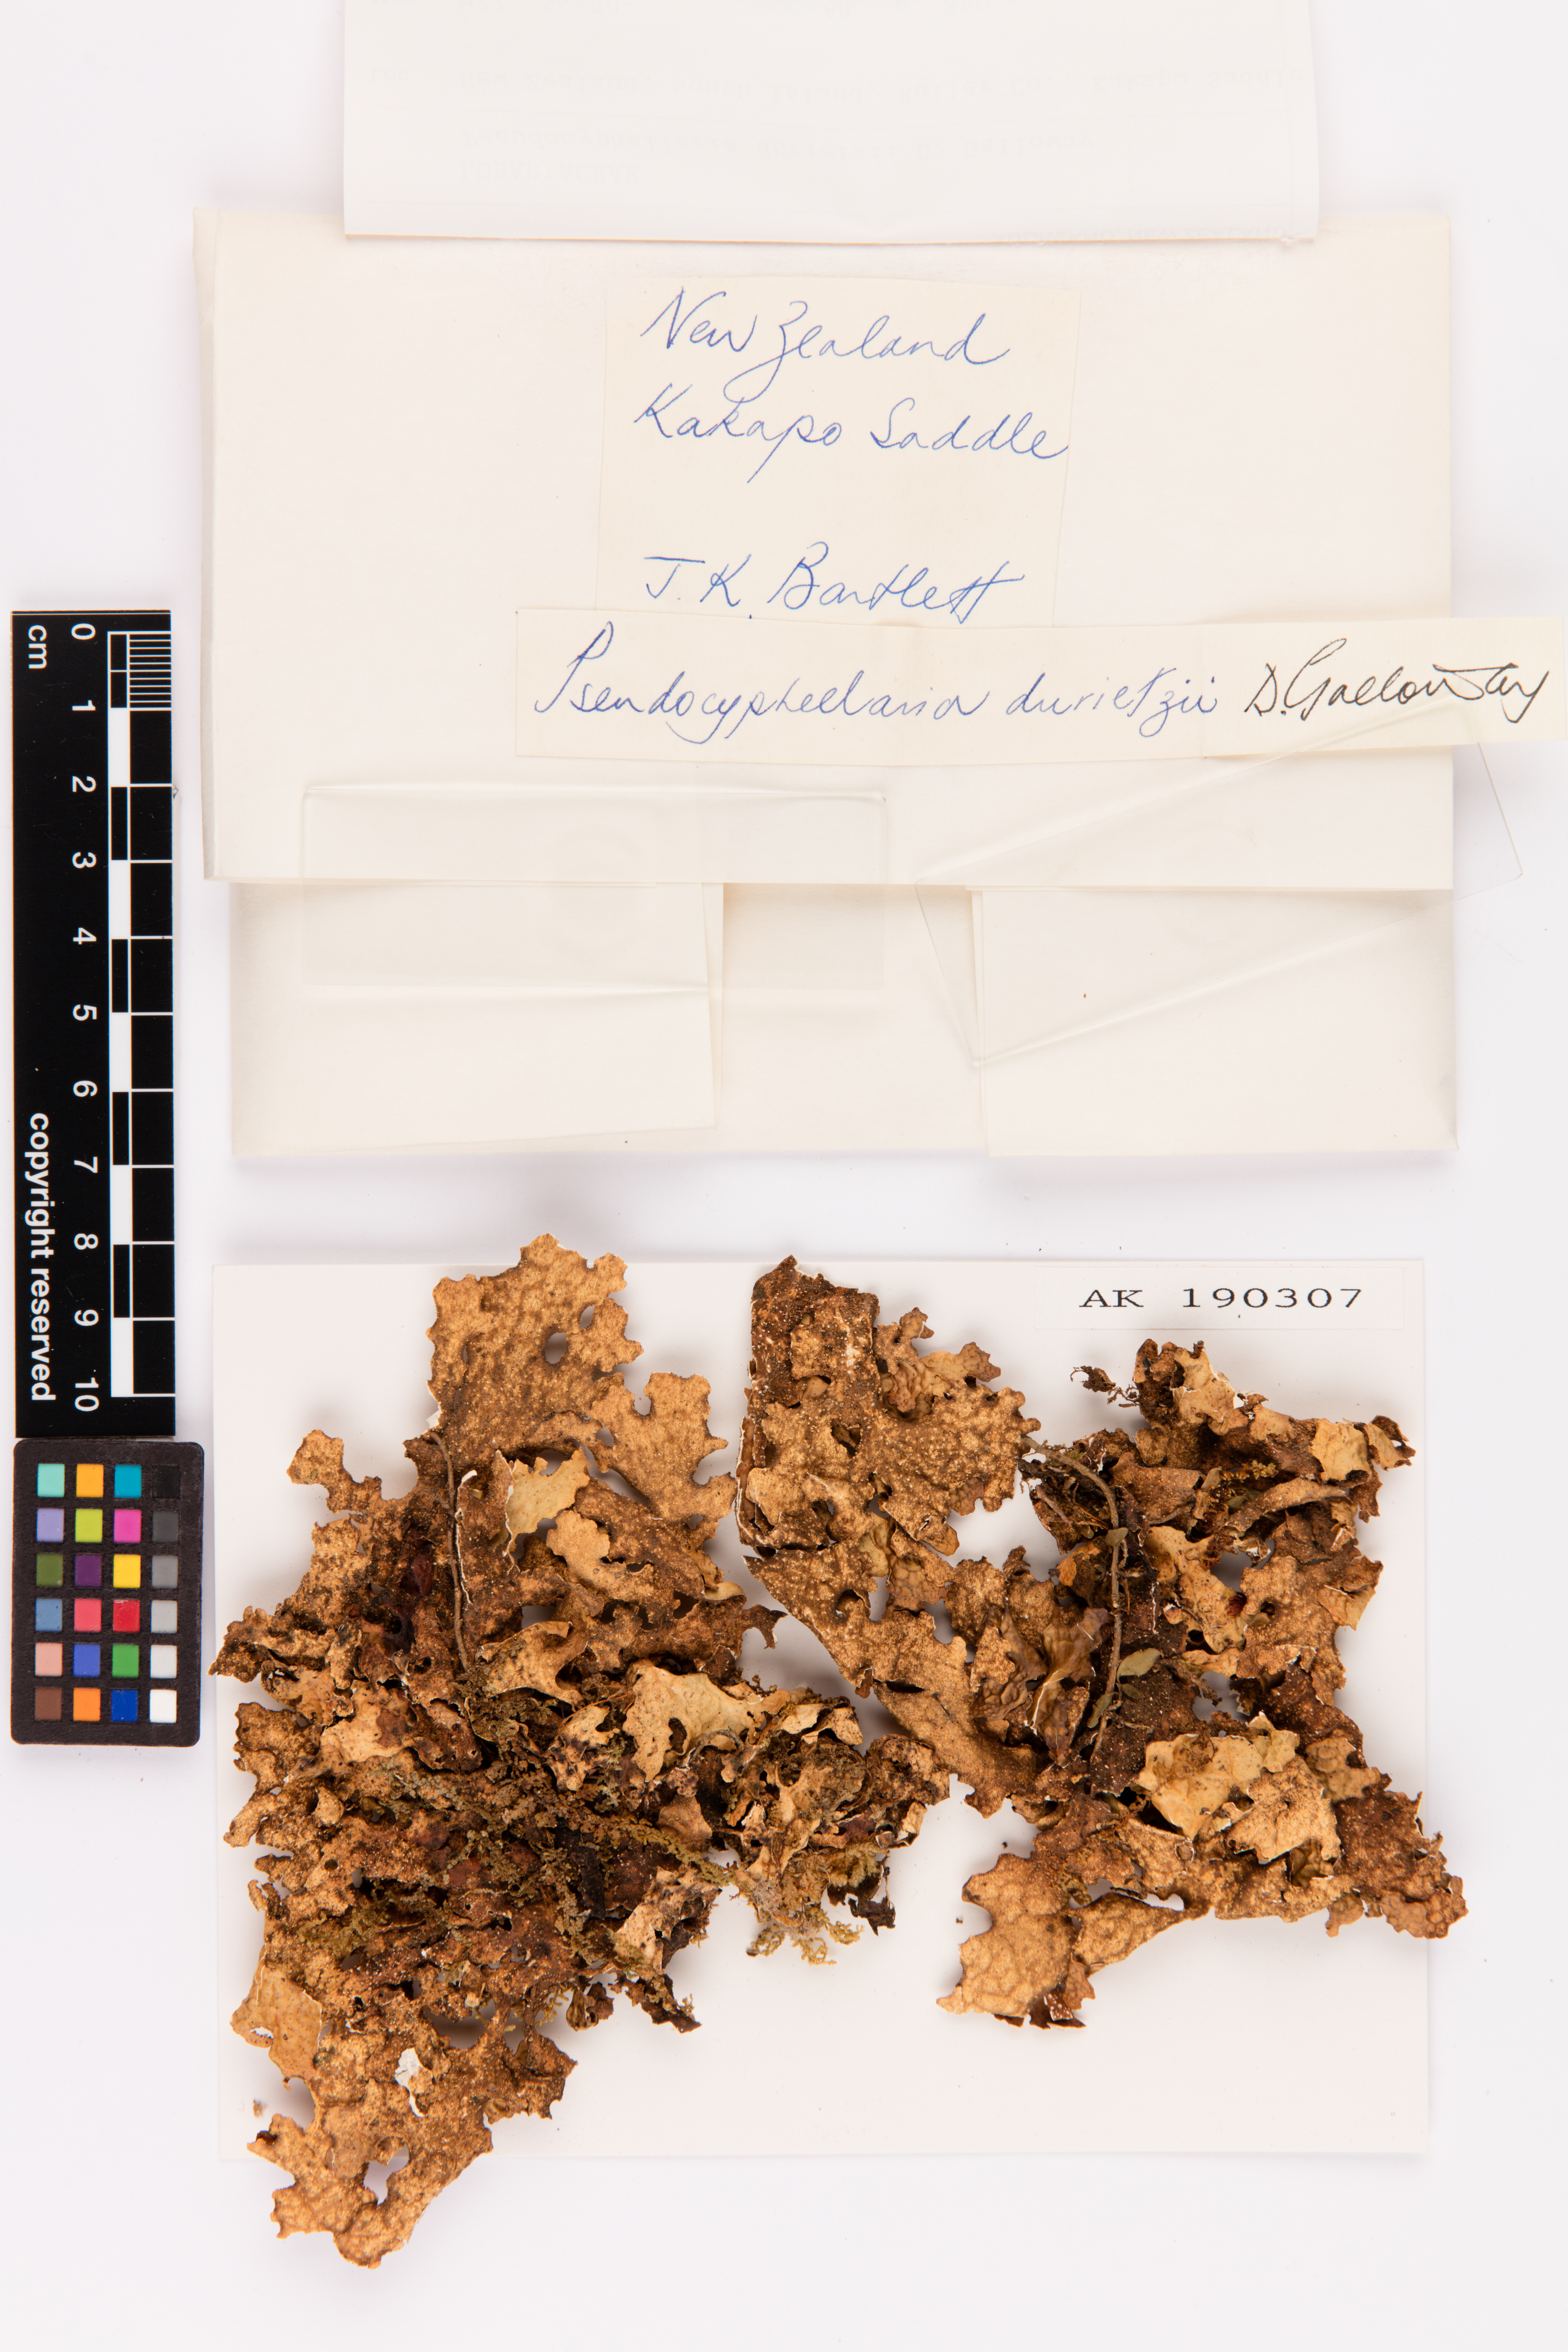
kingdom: Fungi
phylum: Ascomycota
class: Lecanoromycetes
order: Peltigerales
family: Lobariaceae
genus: Pseudocyphellaria
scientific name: Pseudocyphellaria durietzii
